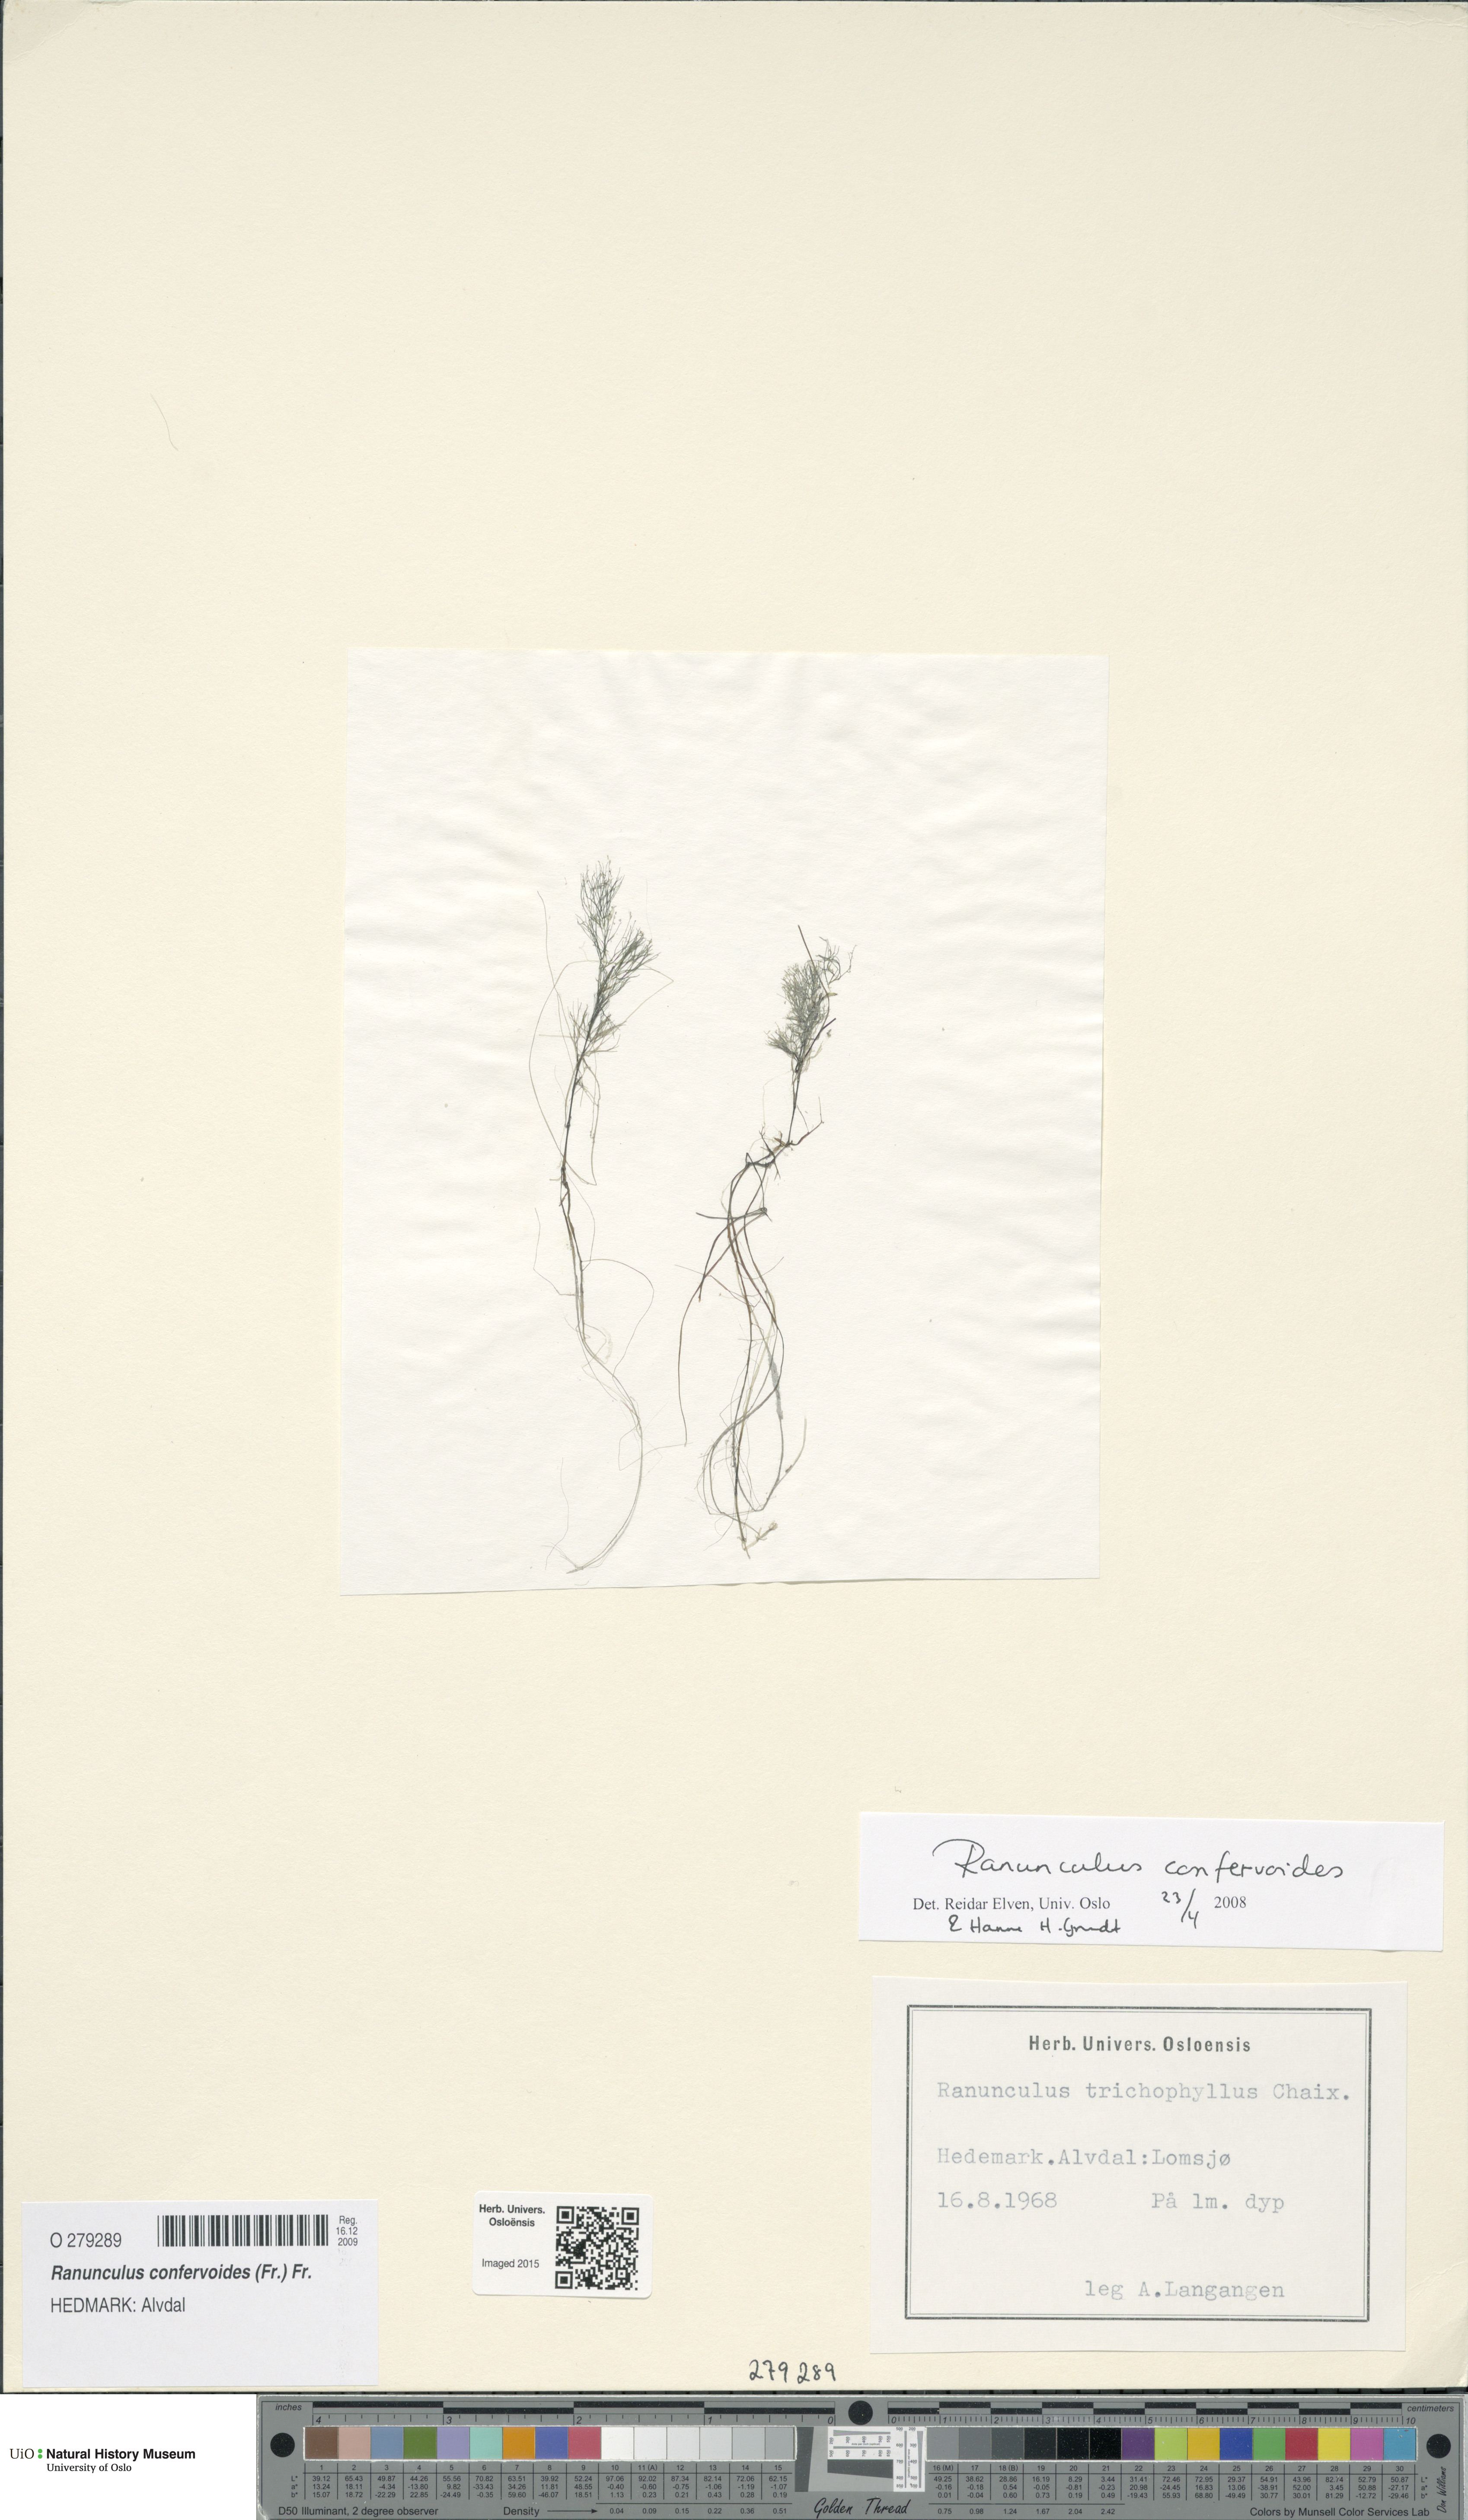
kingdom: Plantae
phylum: Tracheophyta
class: Magnoliopsida
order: Ranunculales
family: Ranunculaceae
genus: Ranunculus
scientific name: Ranunculus confervoides
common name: Delicate buttercup
